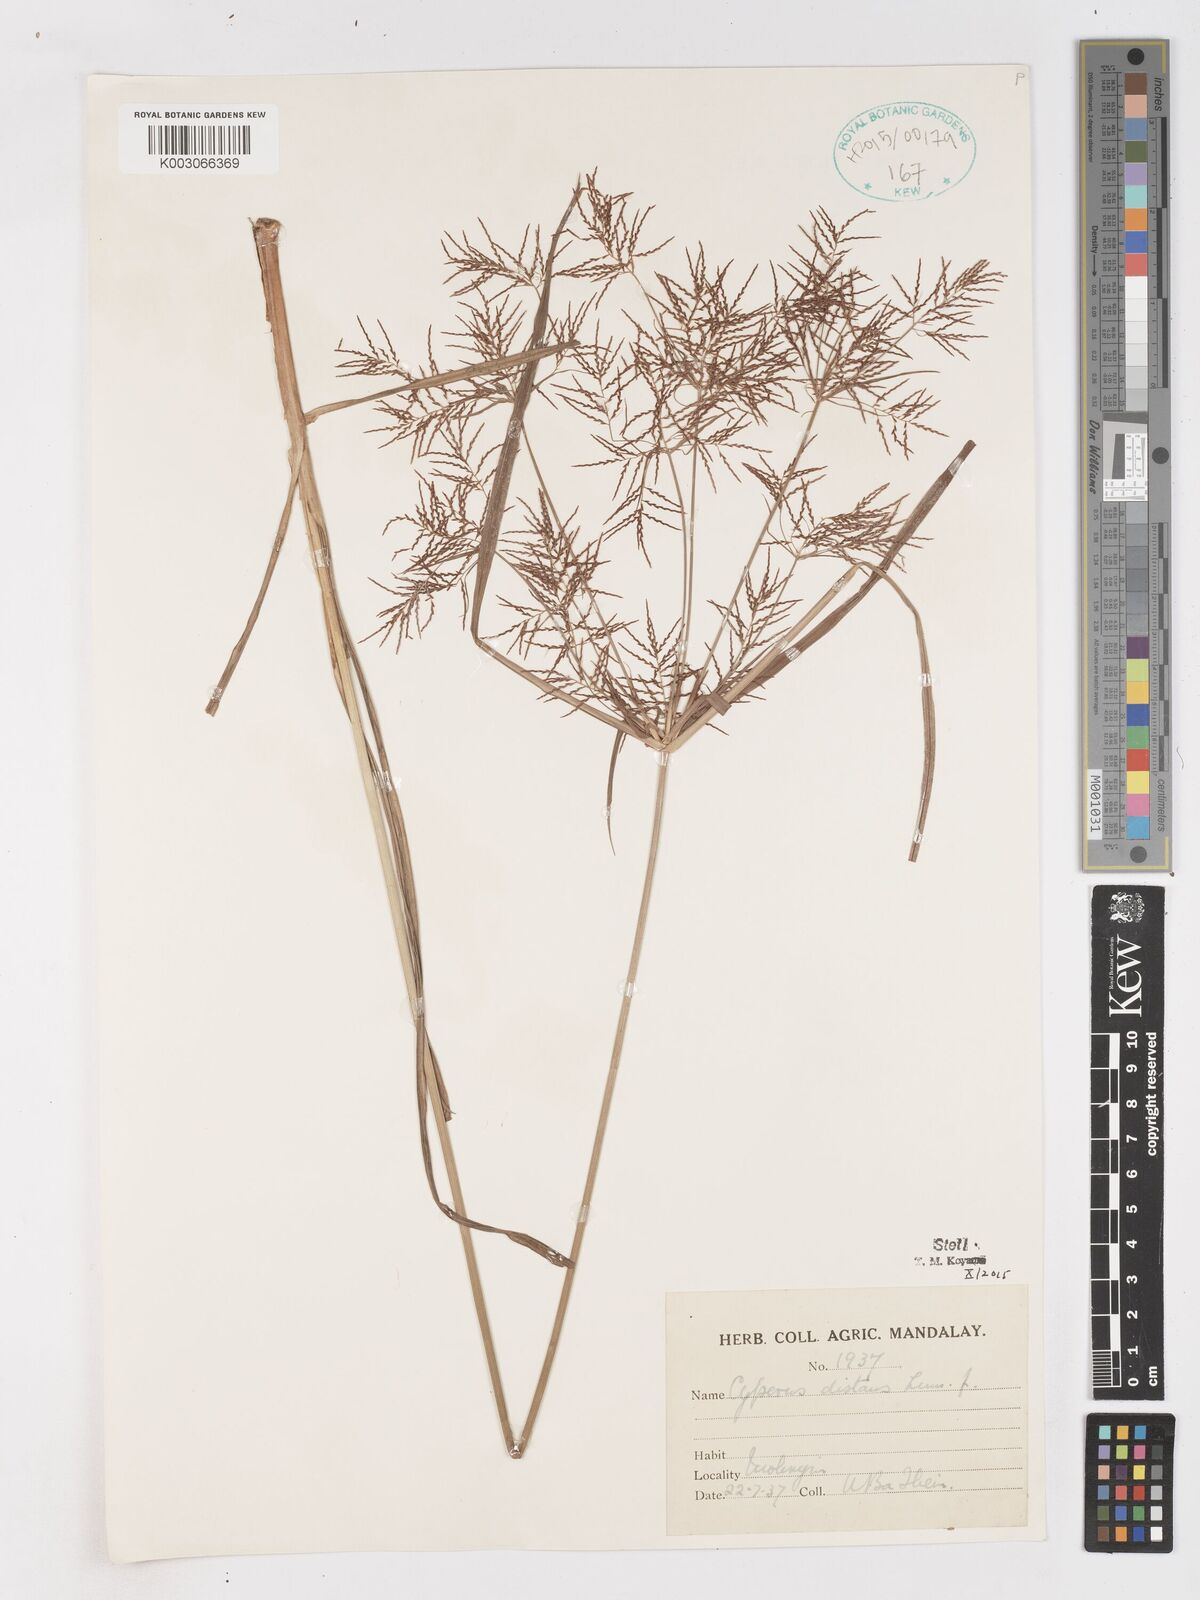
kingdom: Plantae
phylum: Tracheophyta
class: Liliopsida
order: Poales
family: Cyperaceae
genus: Cyperus
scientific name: Cyperus distans
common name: Slender cyperus
